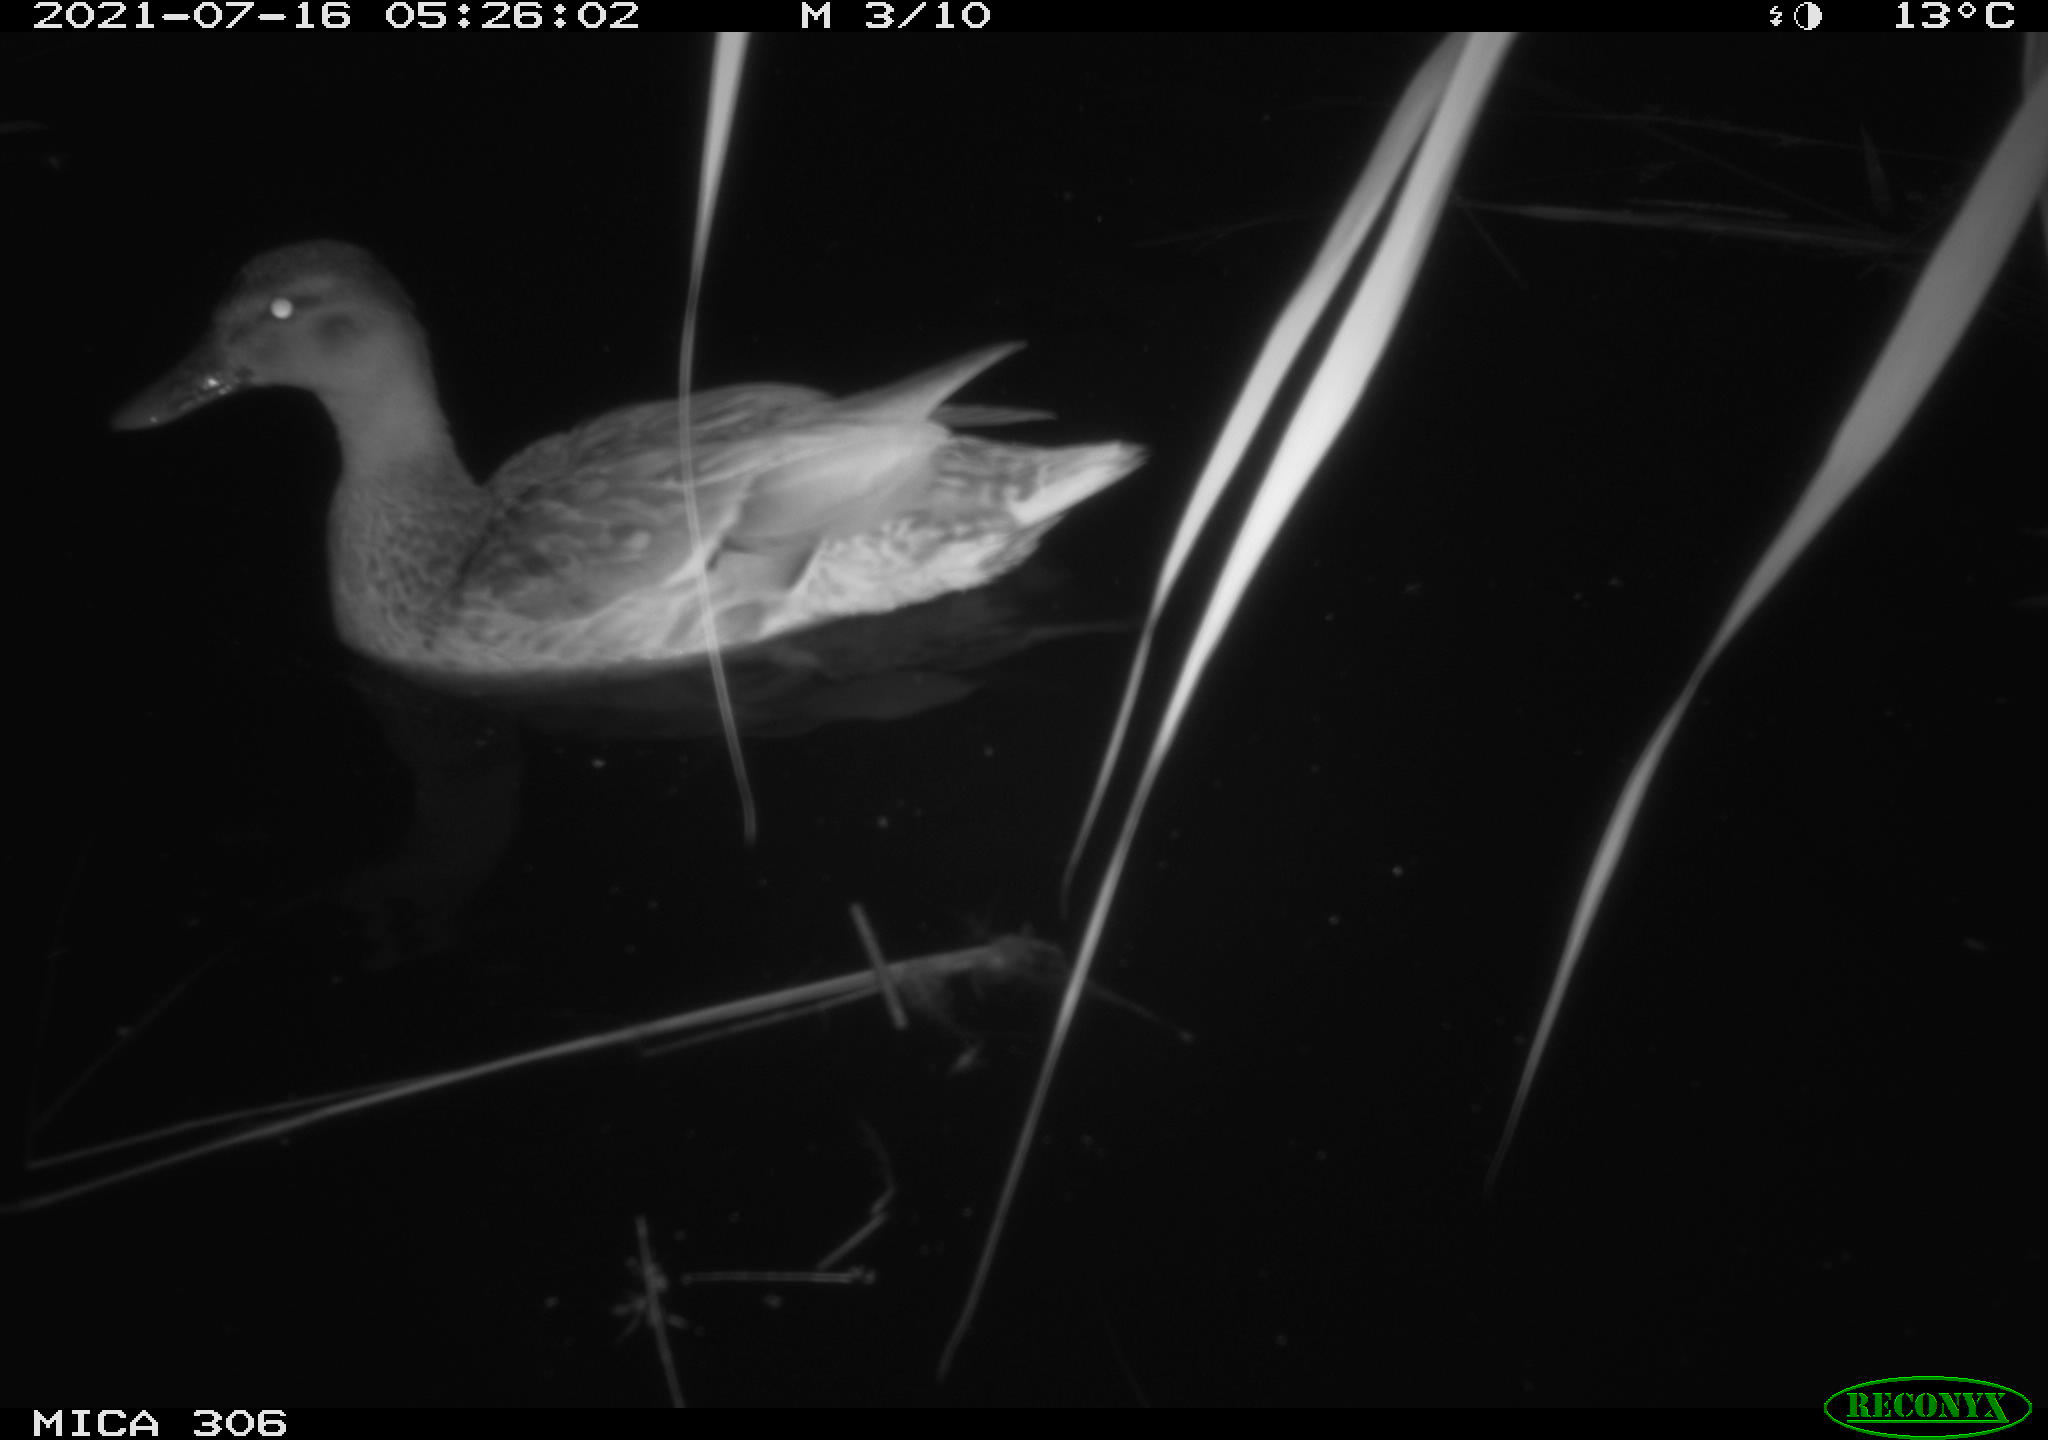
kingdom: Animalia
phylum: Chordata
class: Aves
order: Anseriformes
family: Anatidae
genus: Anas
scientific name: Anas
